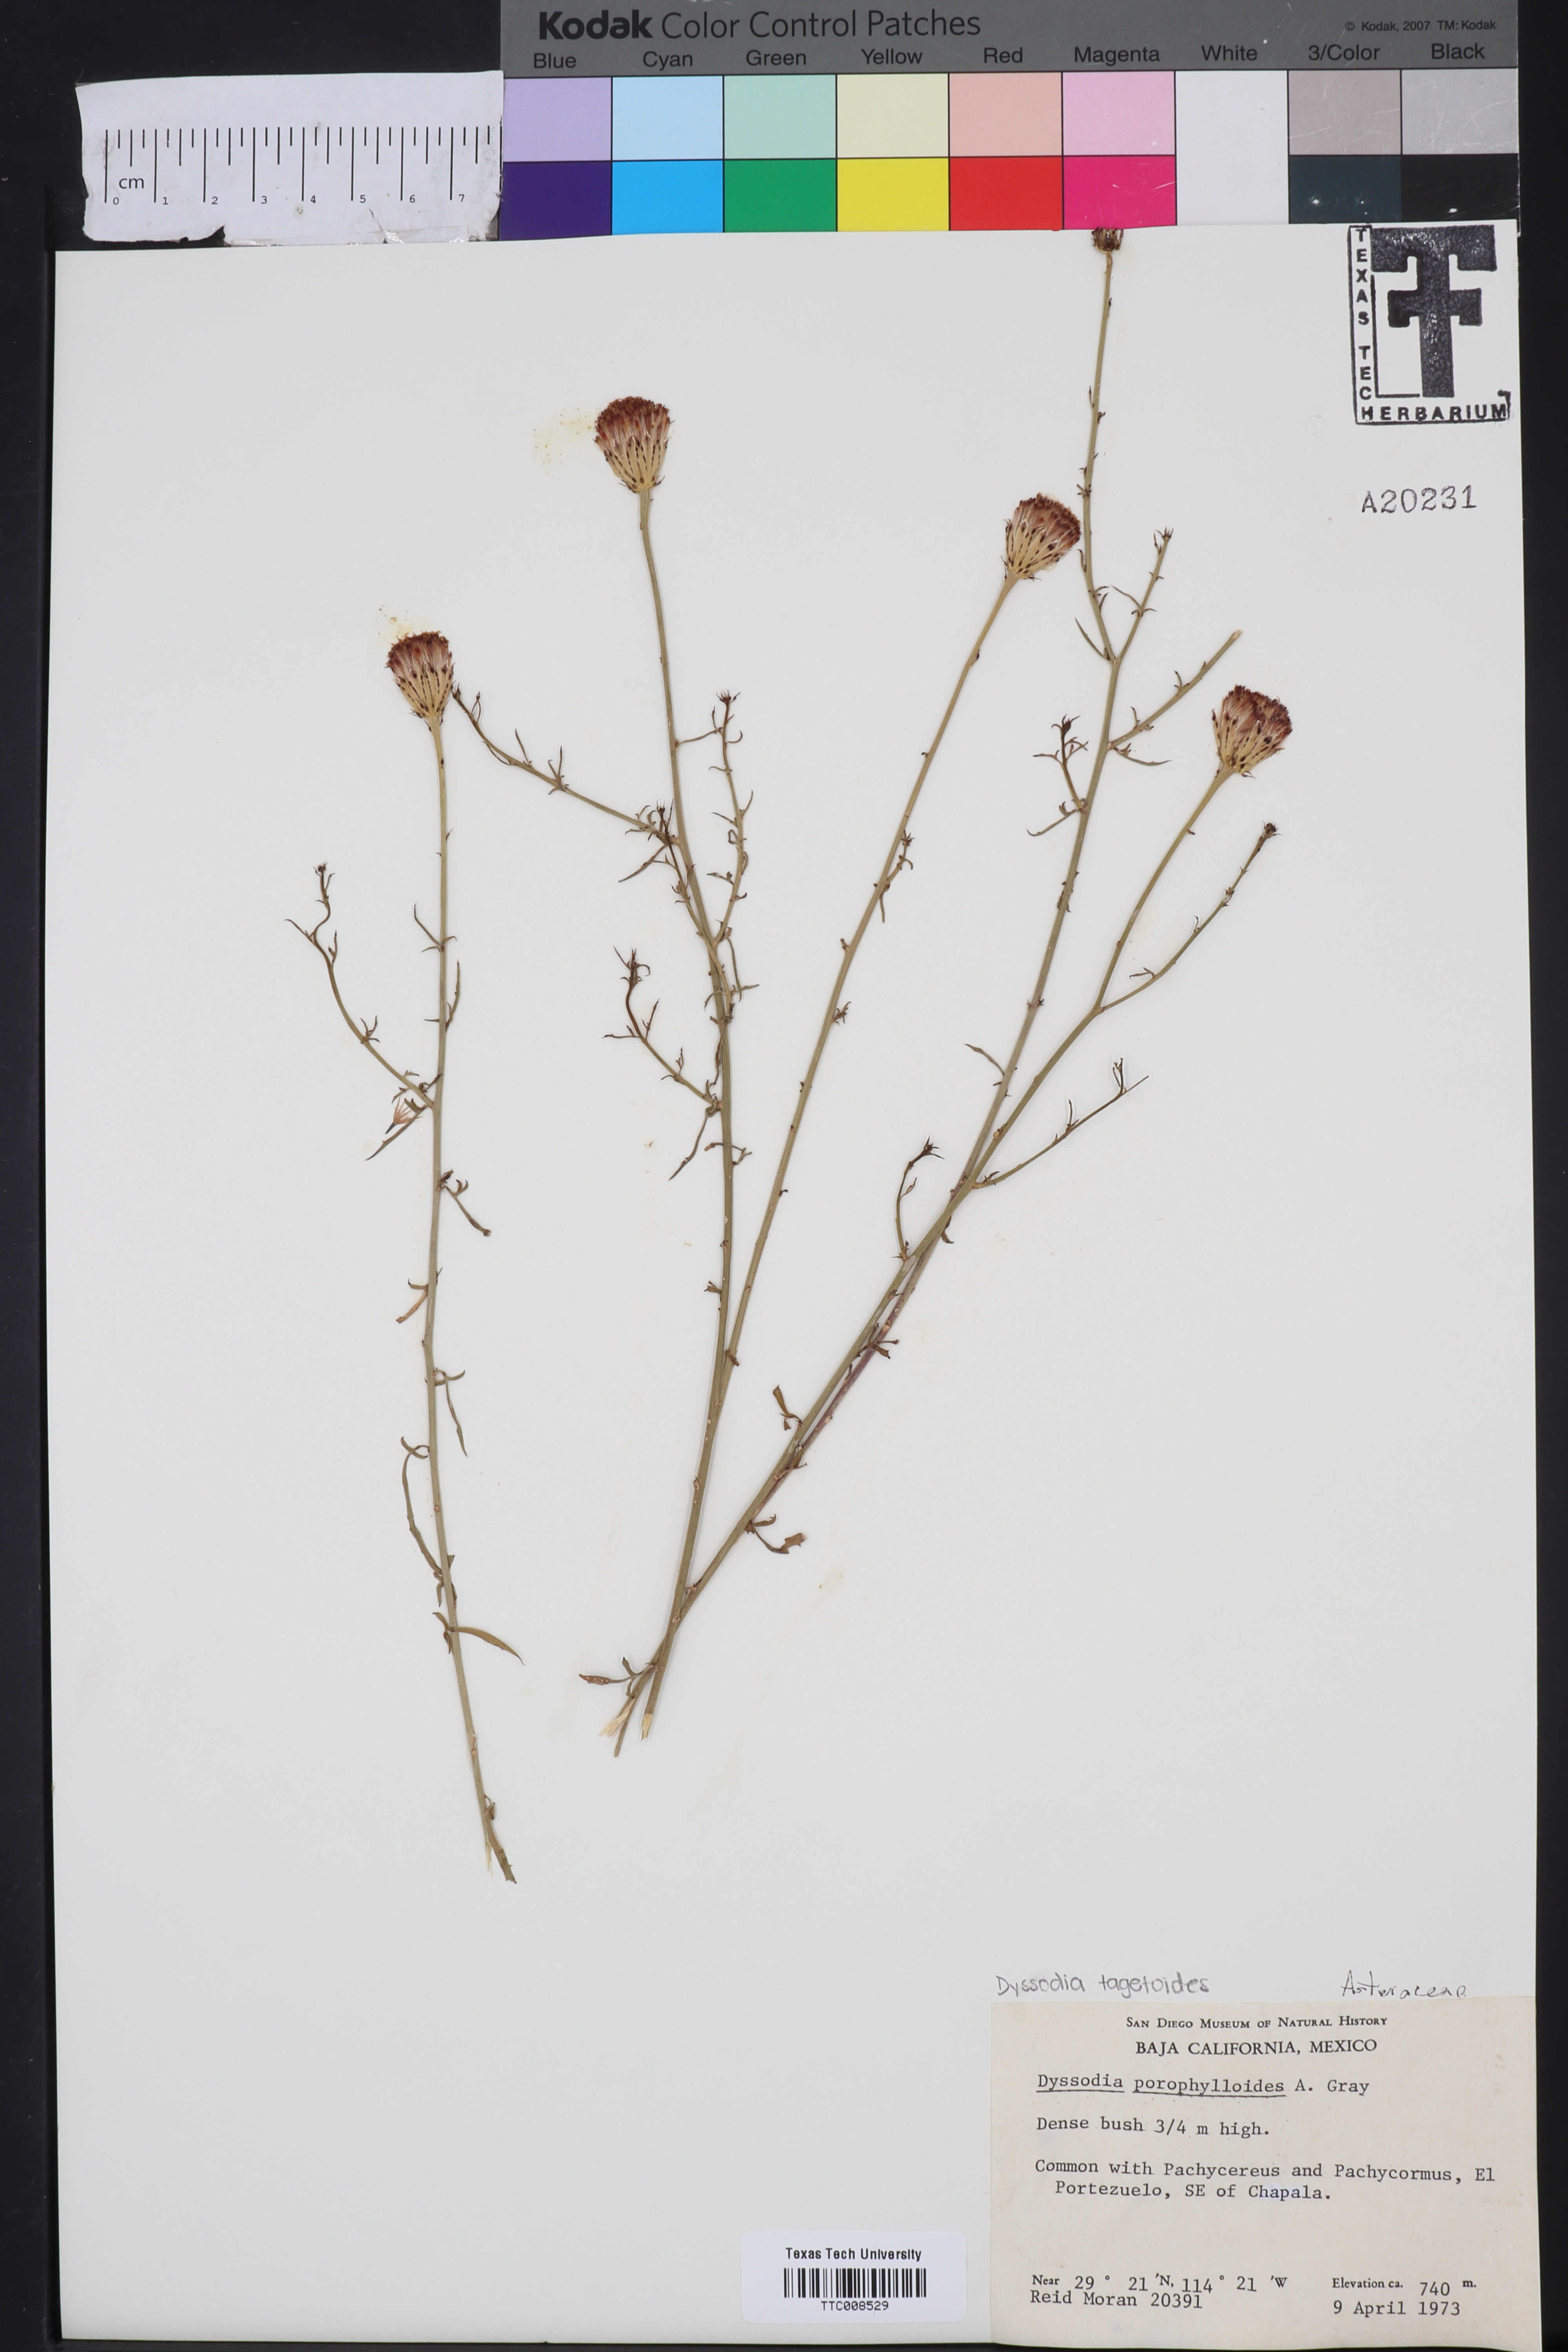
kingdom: Plantae
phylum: Tracheophyta
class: Magnoliopsida
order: Asterales
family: Asteraceae
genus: Adenophyllum
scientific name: Adenophyllum porophylloides
